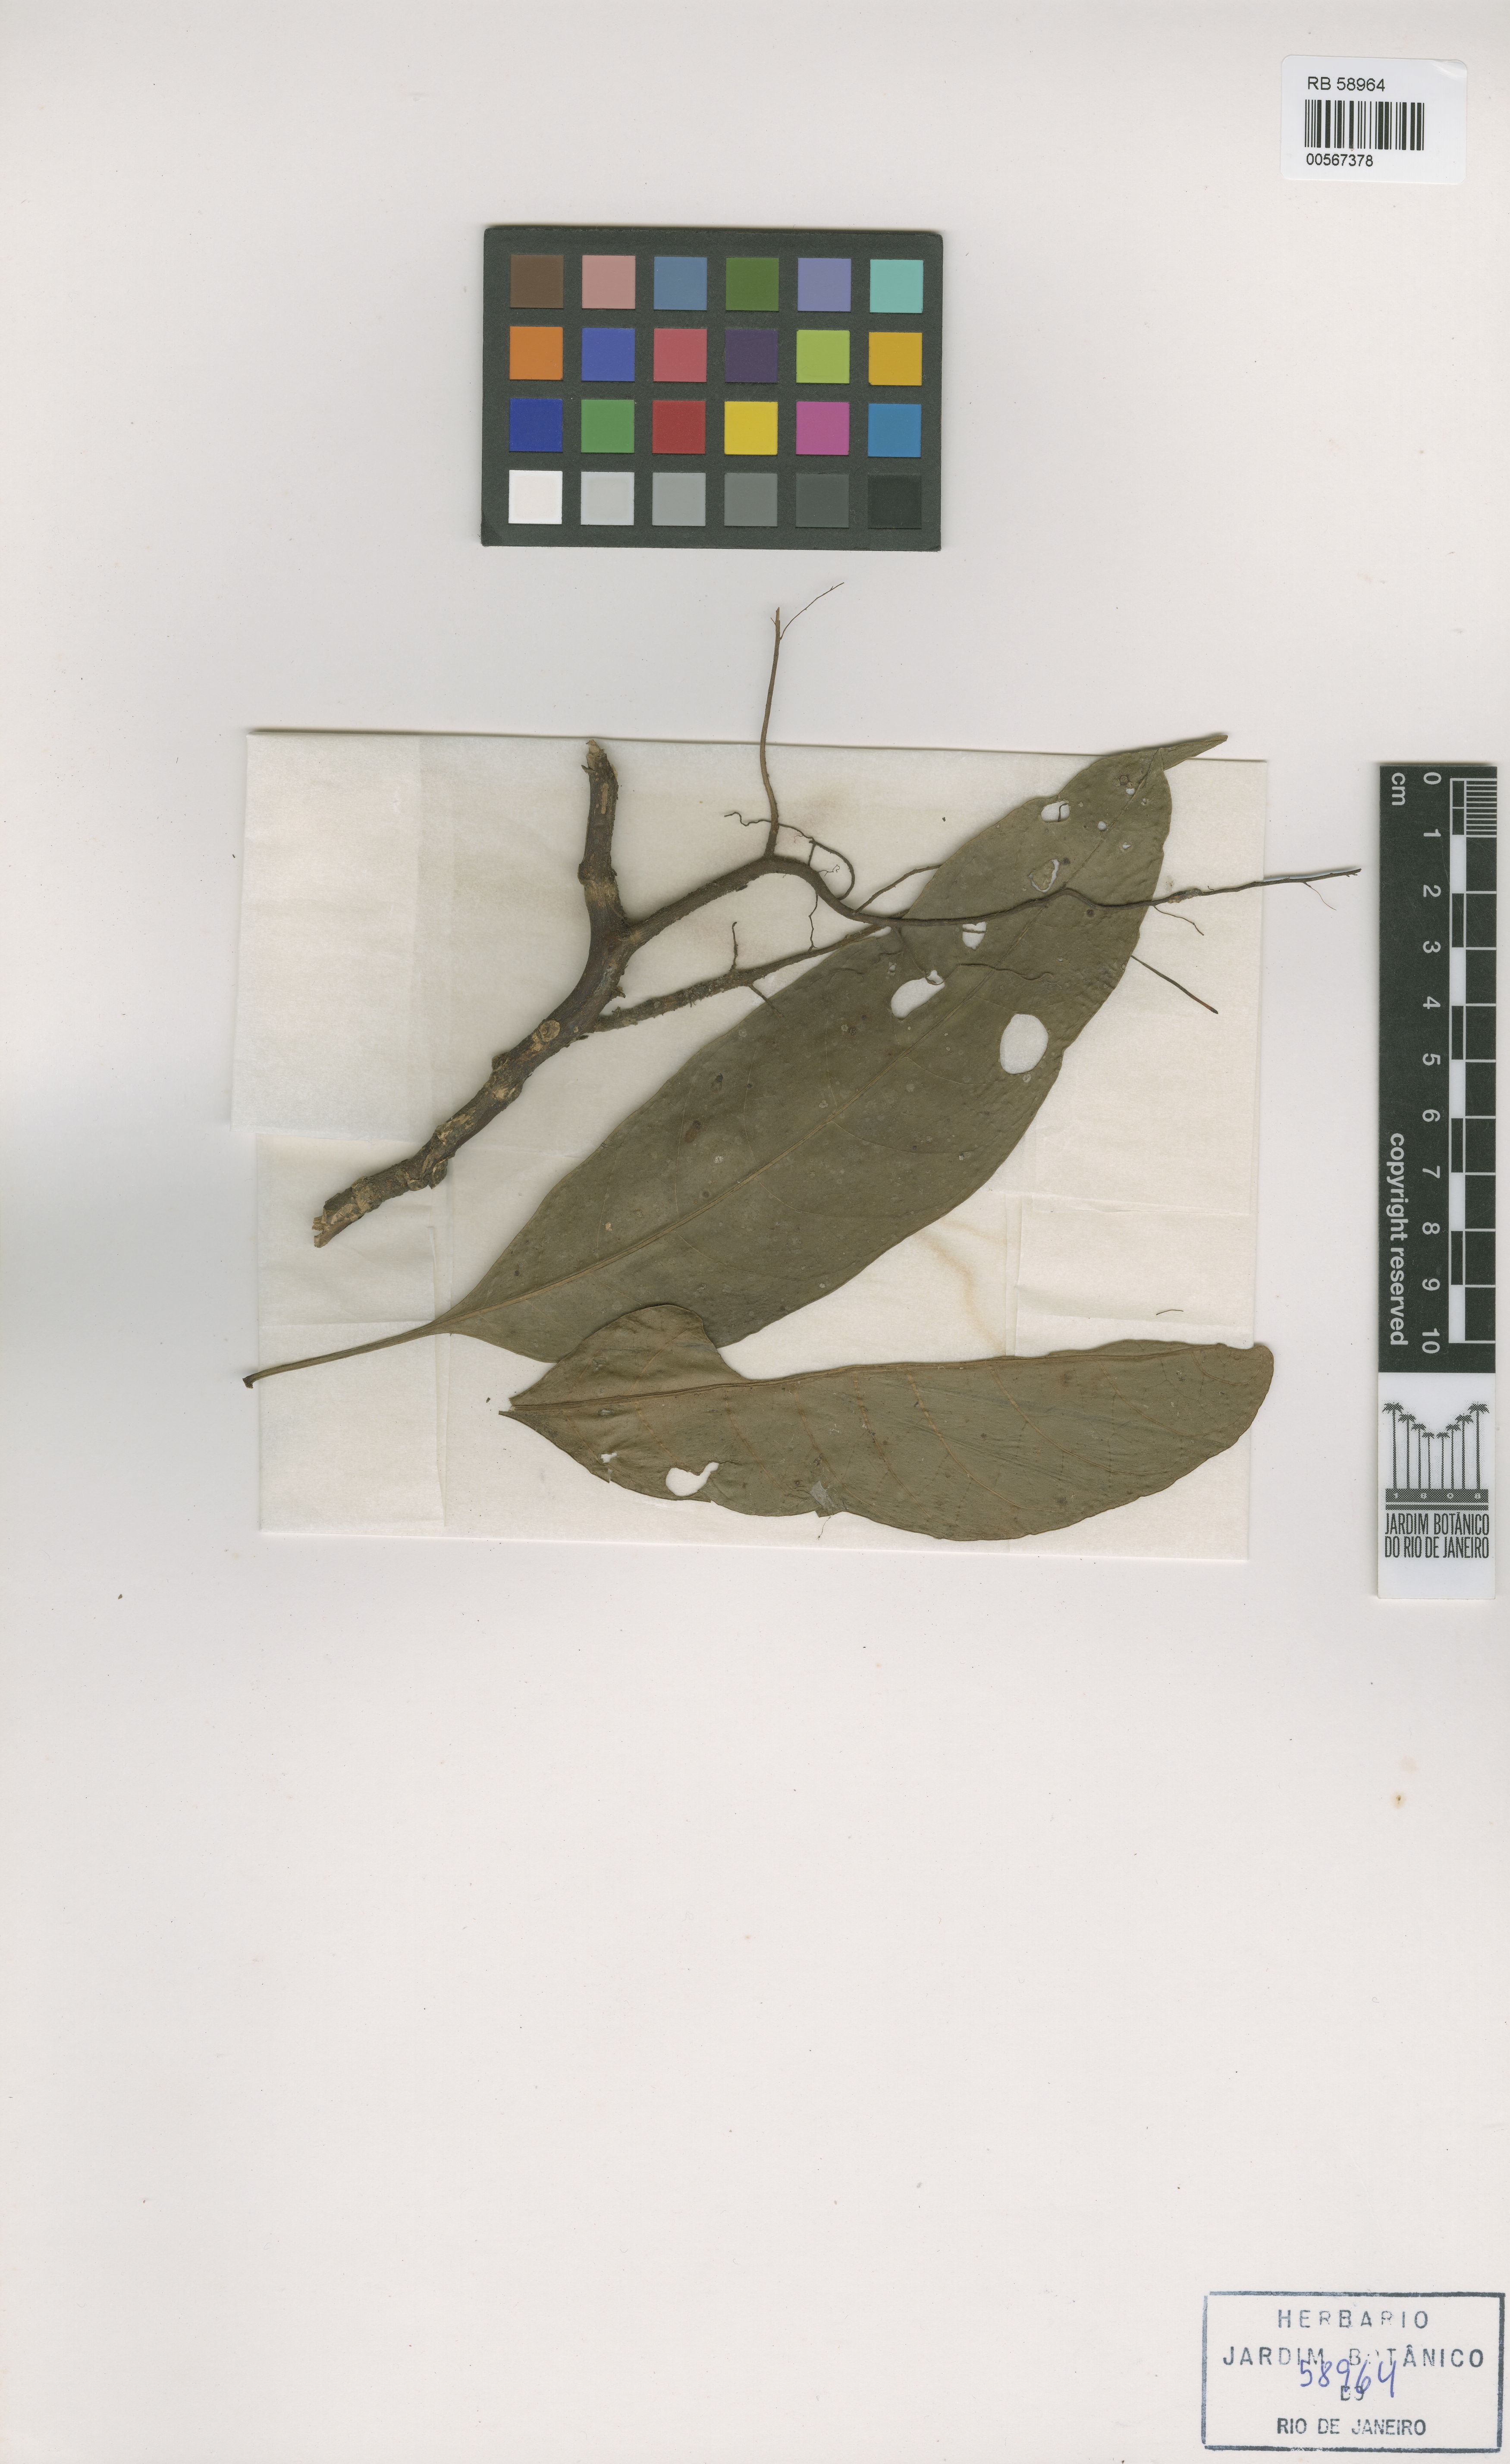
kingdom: Plantae
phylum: Tracheophyta
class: Magnoliopsida
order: Lamiales
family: Acanthaceae
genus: Aphelandra
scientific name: Aphelandra prismatica
